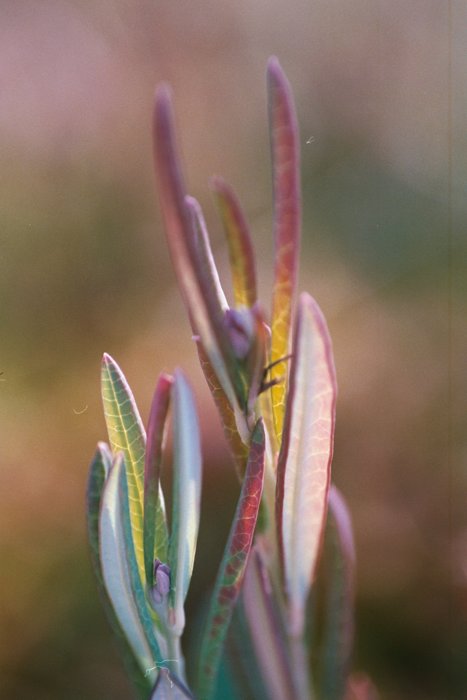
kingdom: Plantae
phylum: Tracheophyta
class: Magnoliopsida
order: Ericales
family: Ericaceae
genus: Andromeda
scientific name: Andromeda polifolia
